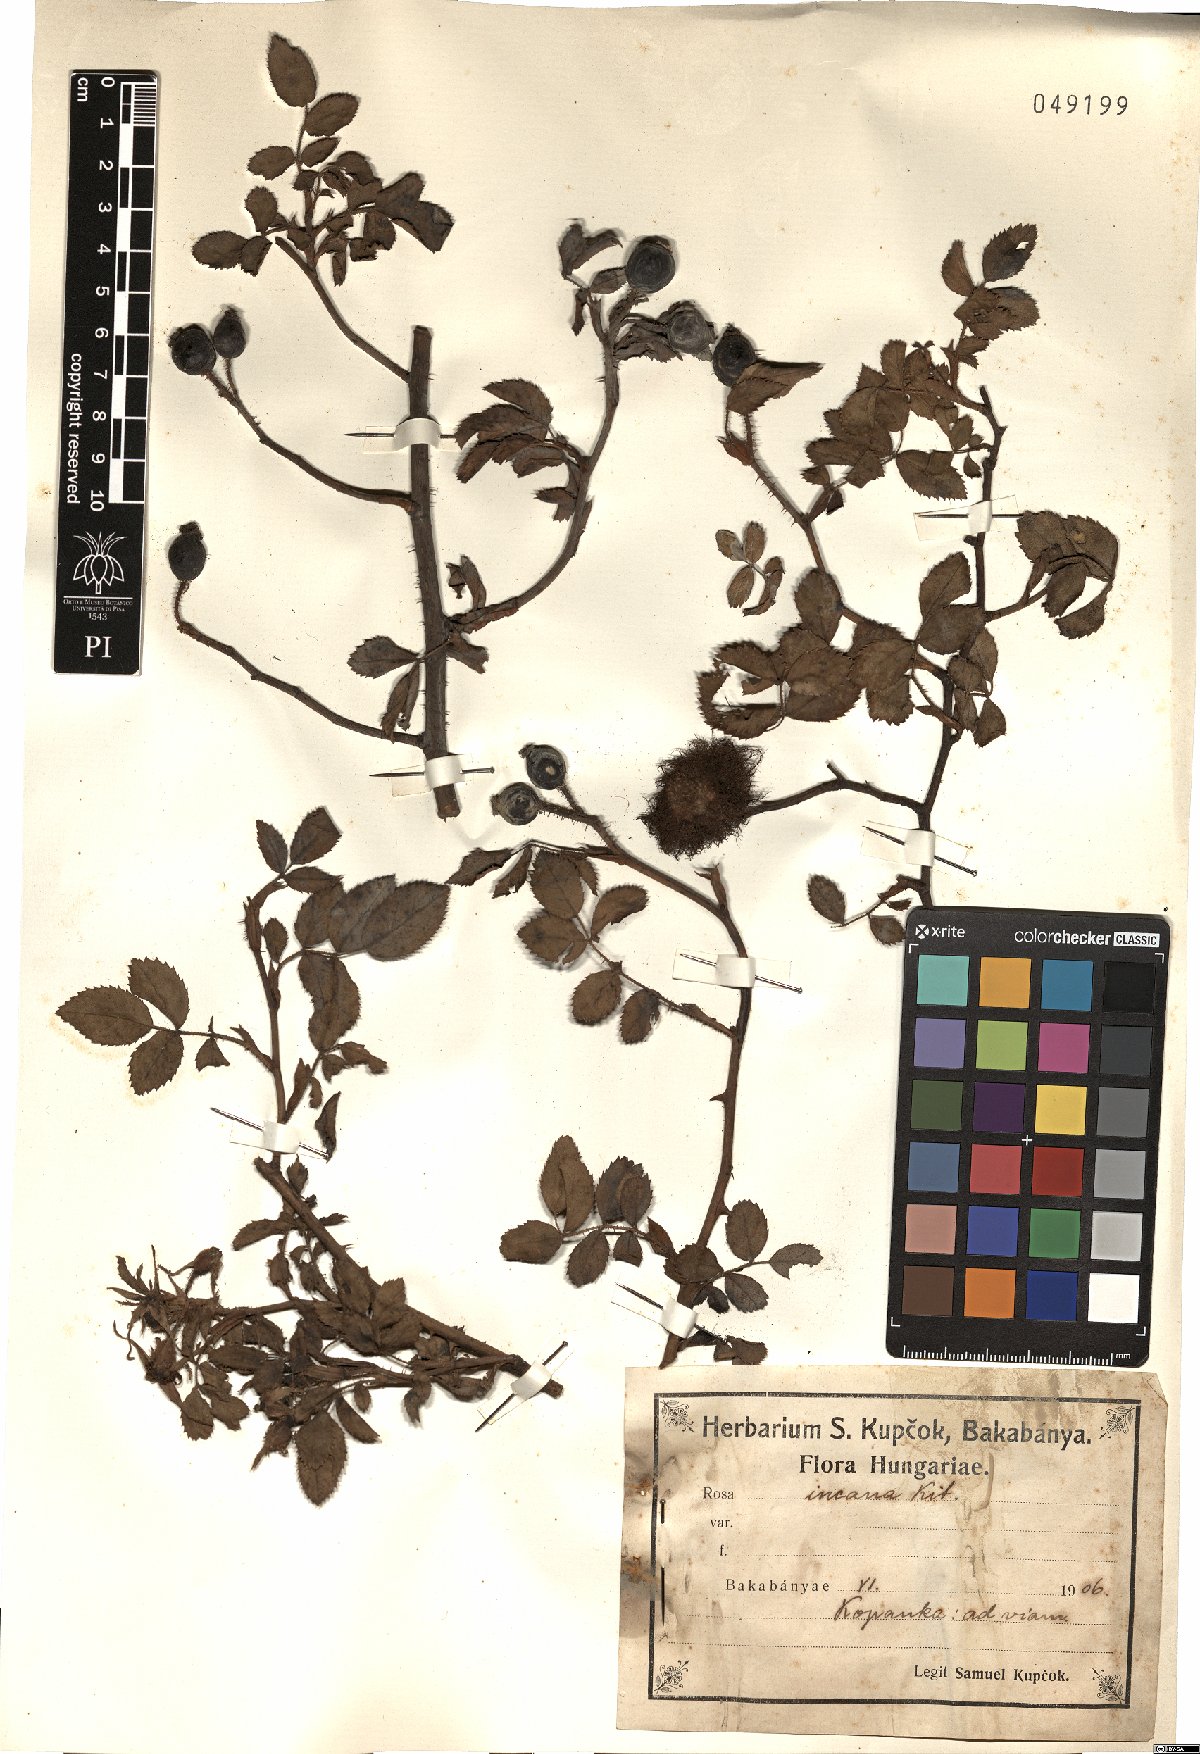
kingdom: Plantae
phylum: Tracheophyta
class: Magnoliopsida
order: Rosales
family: Rosaceae
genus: Rosa
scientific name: Rosa caesia
